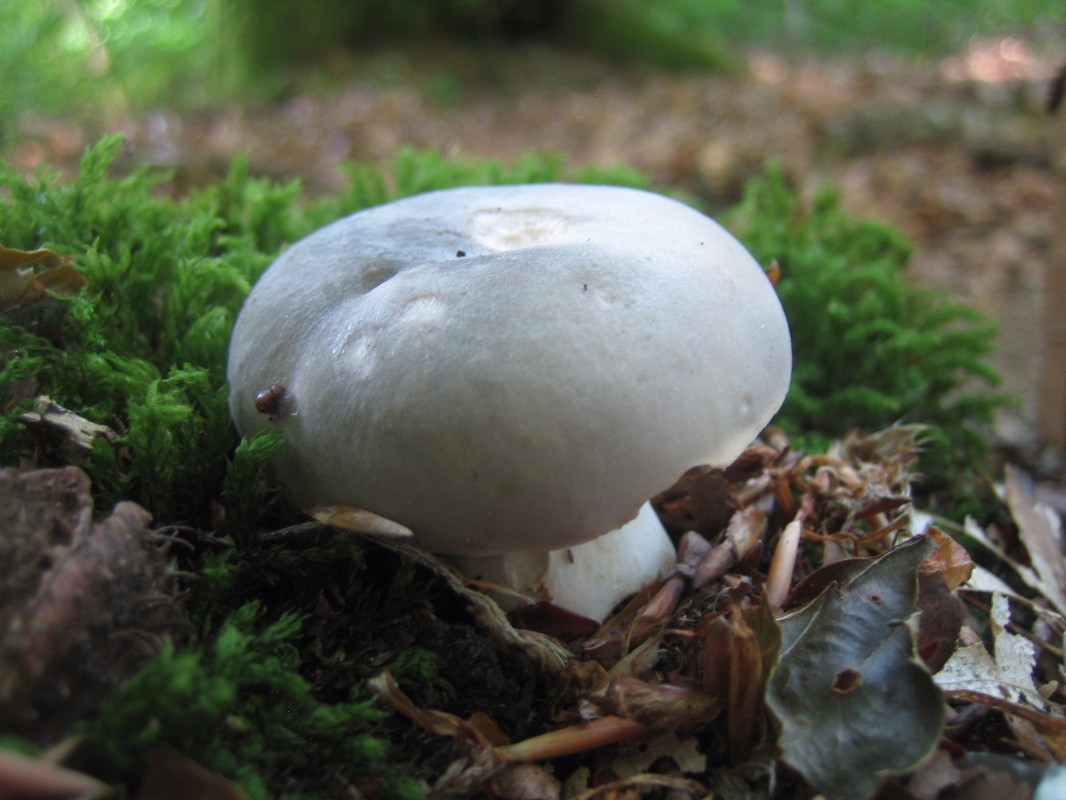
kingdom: Fungi
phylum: Basidiomycota
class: Agaricomycetes
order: Russulales
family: Russulaceae
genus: Russula
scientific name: Russula
